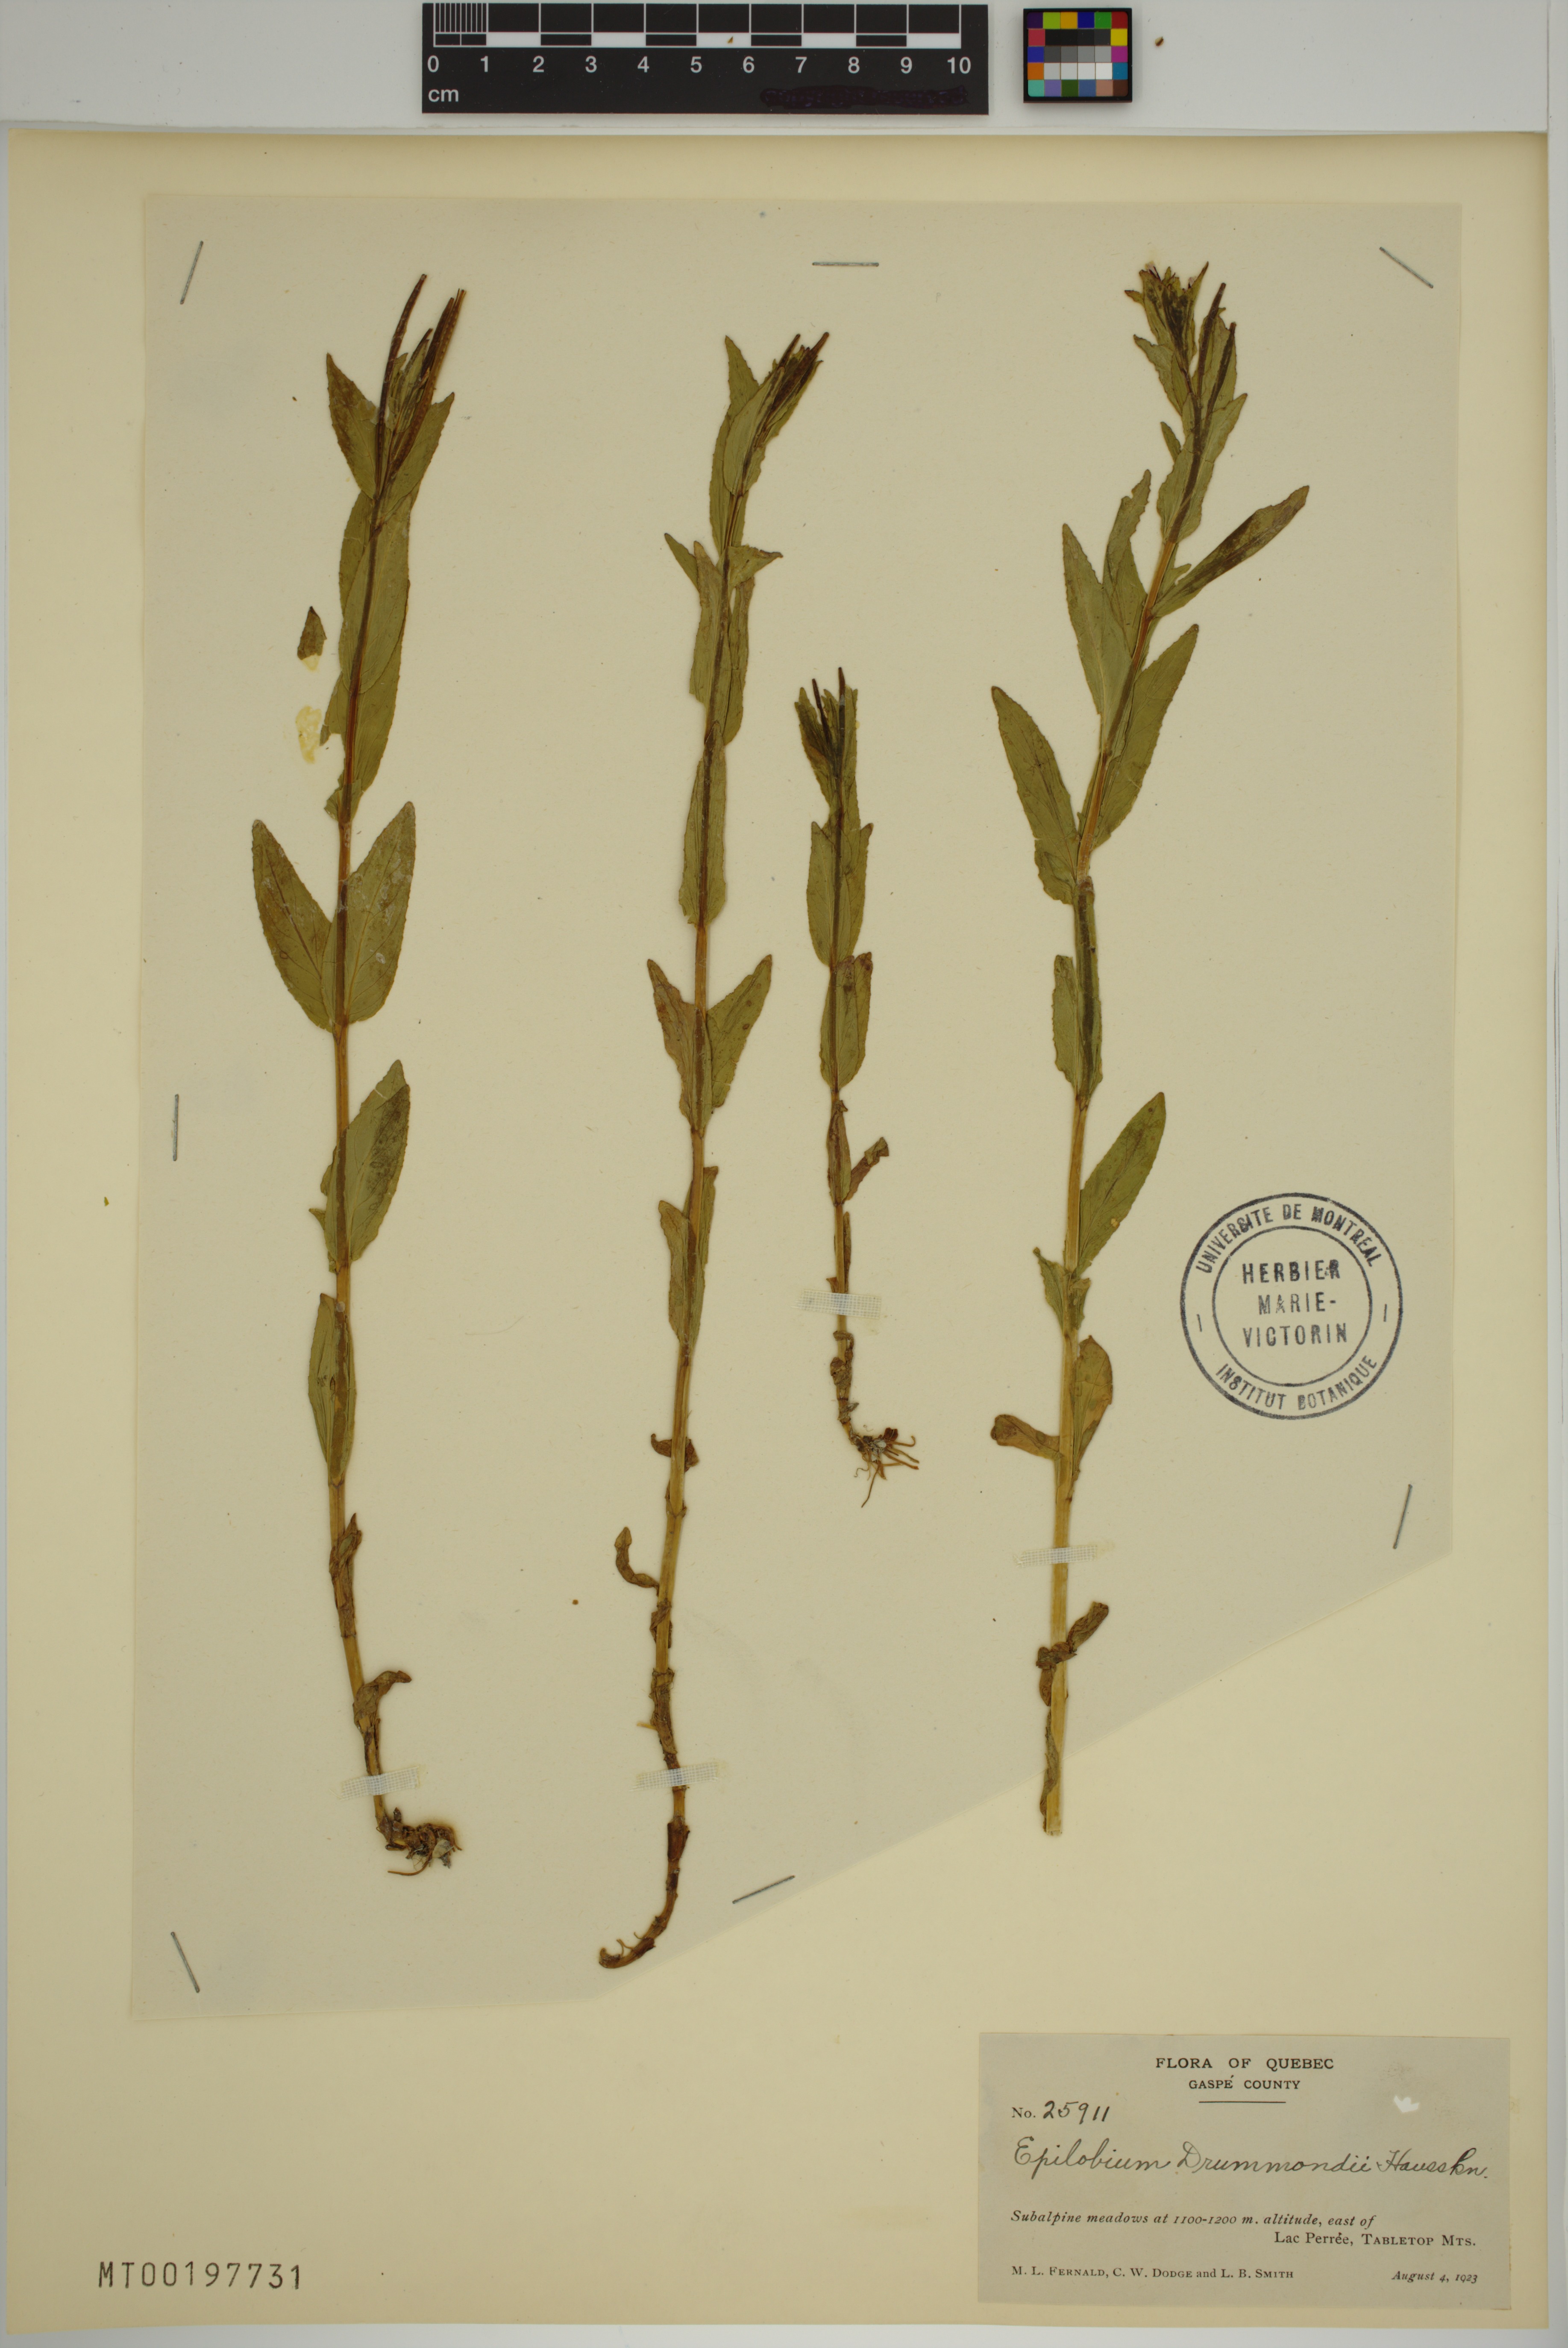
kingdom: Plantae
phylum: Tracheophyta
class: Magnoliopsida
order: Myrtales
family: Onagraceae
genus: Epilobium
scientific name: Epilobium saximontanum
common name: Rocky mountain willowherb
